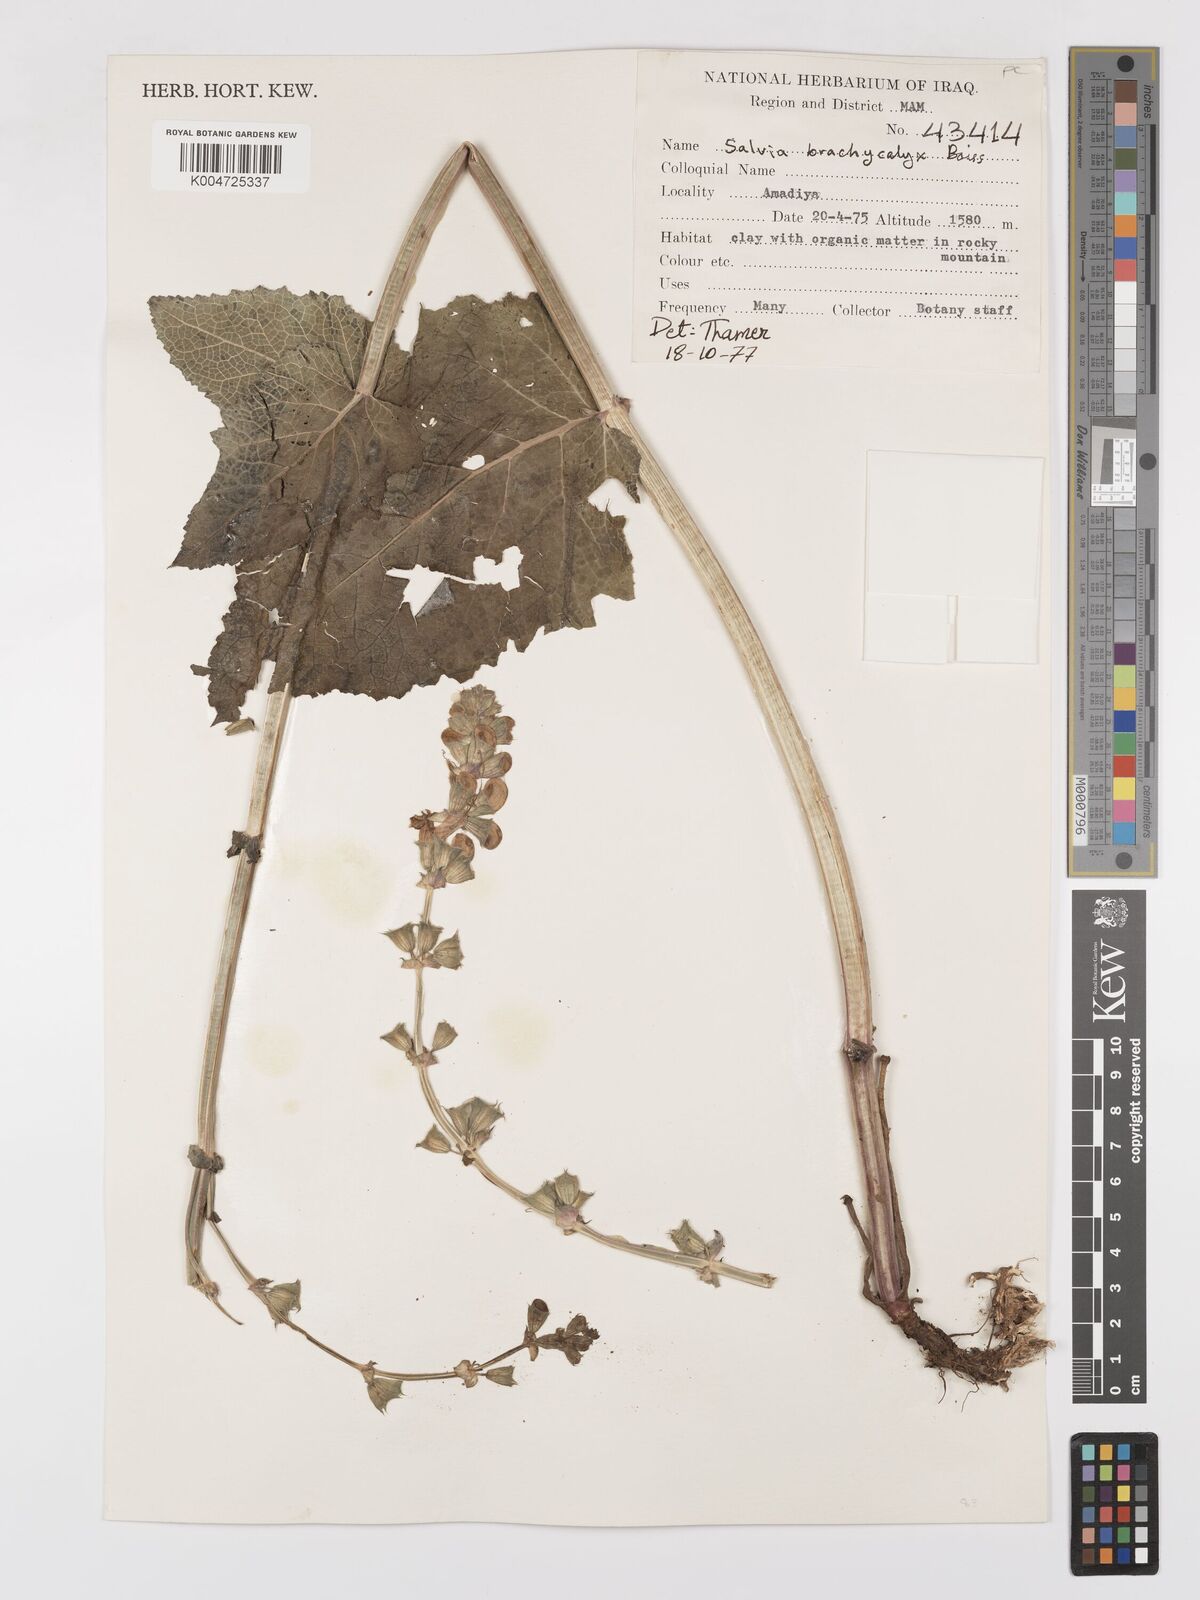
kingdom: Plantae
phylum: Tracheophyta
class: Magnoliopsida
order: Lamiales
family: Lamiaceae
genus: Salvia
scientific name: Salvia indica
